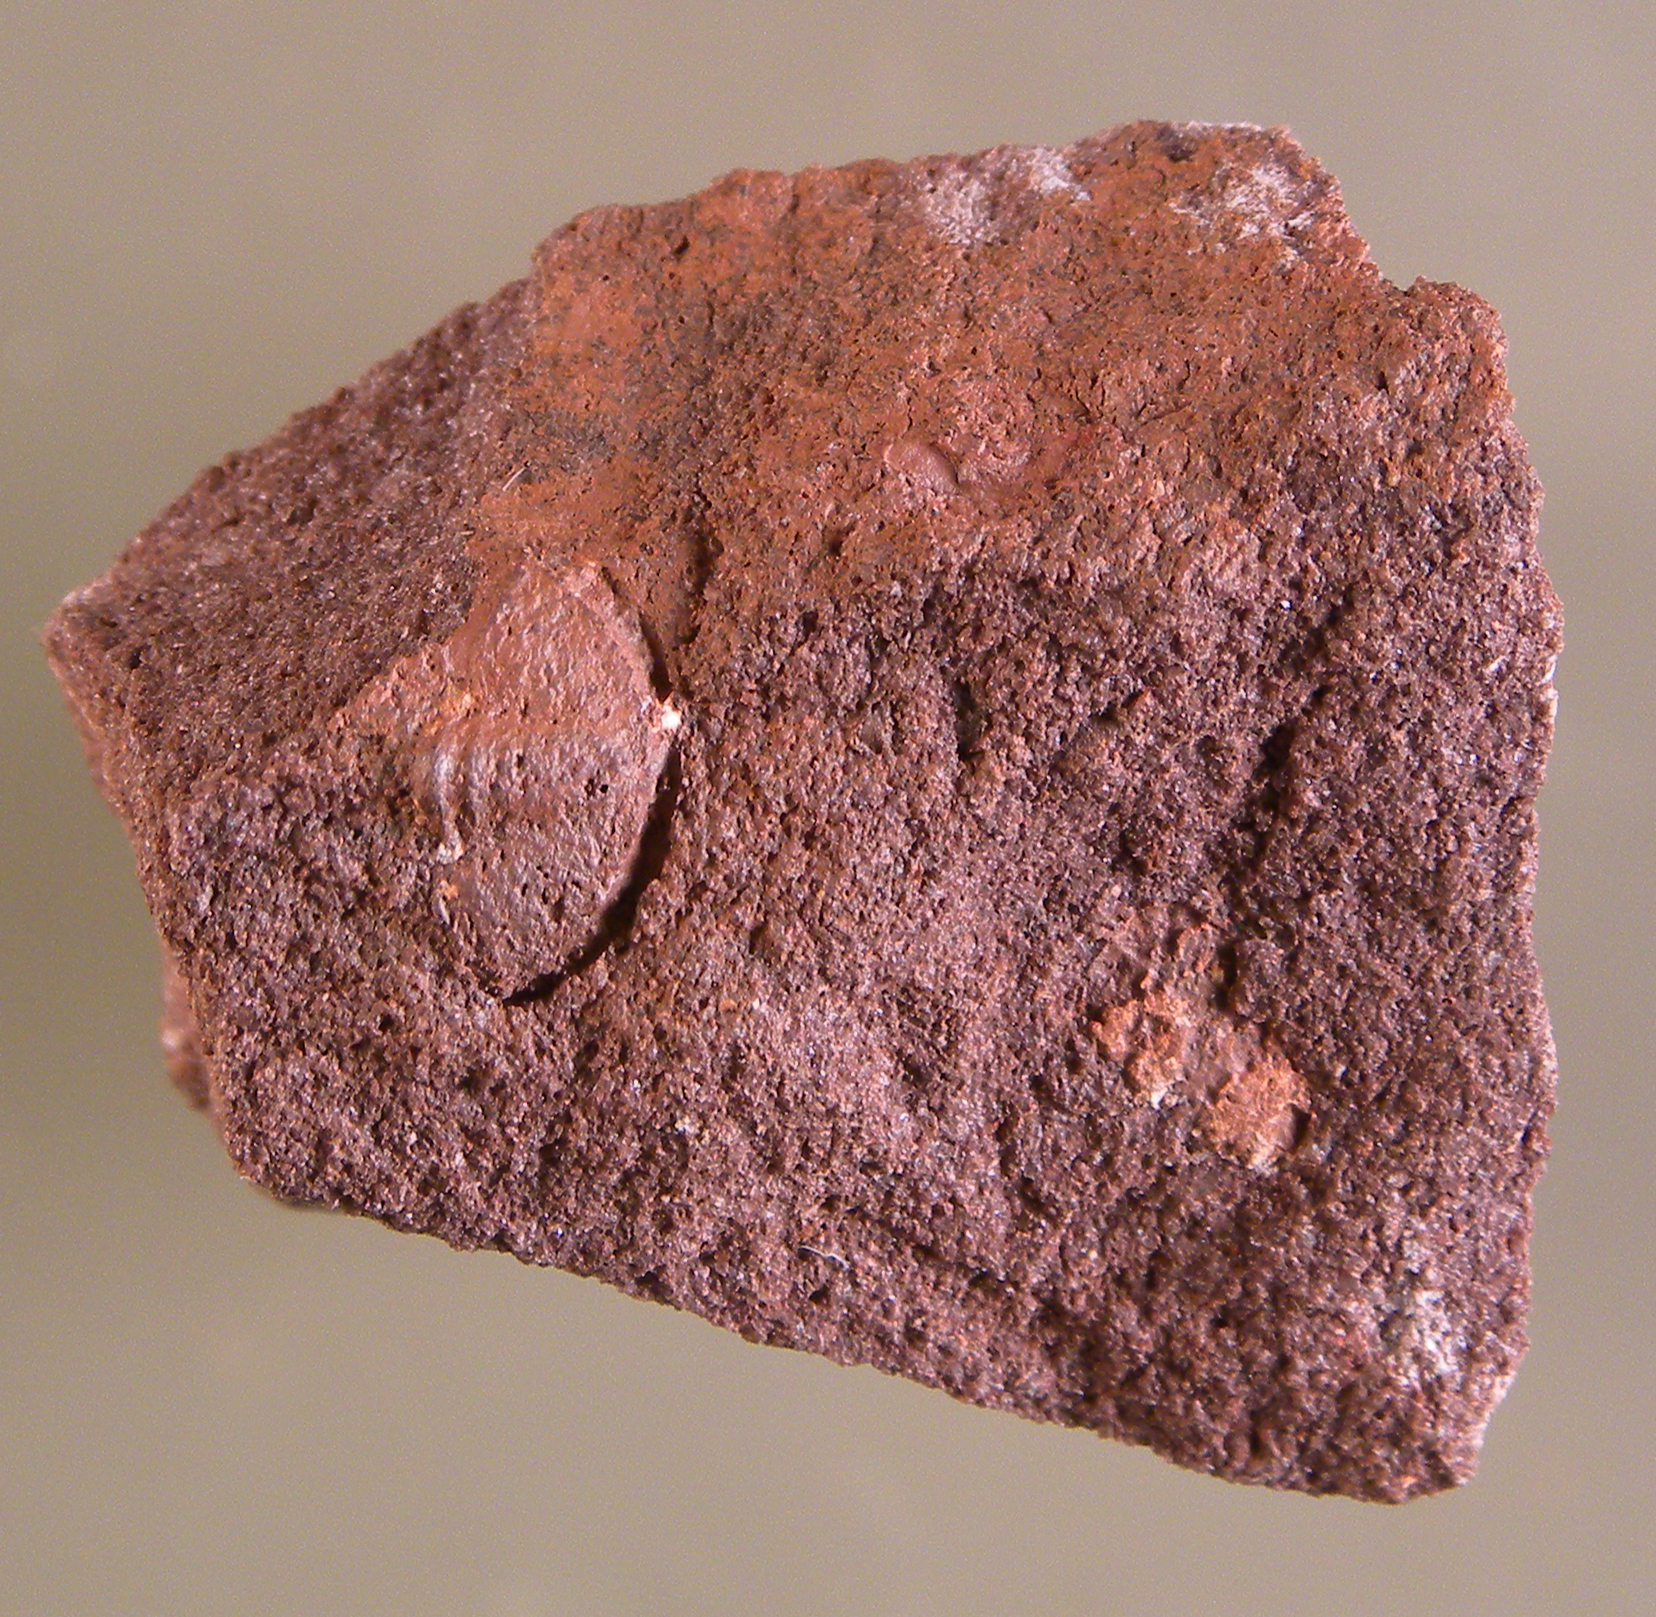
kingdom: Animalia
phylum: Arthropoda
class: Trilobita
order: Phacopida
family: Acastidae
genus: Acastava
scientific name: Acastava
